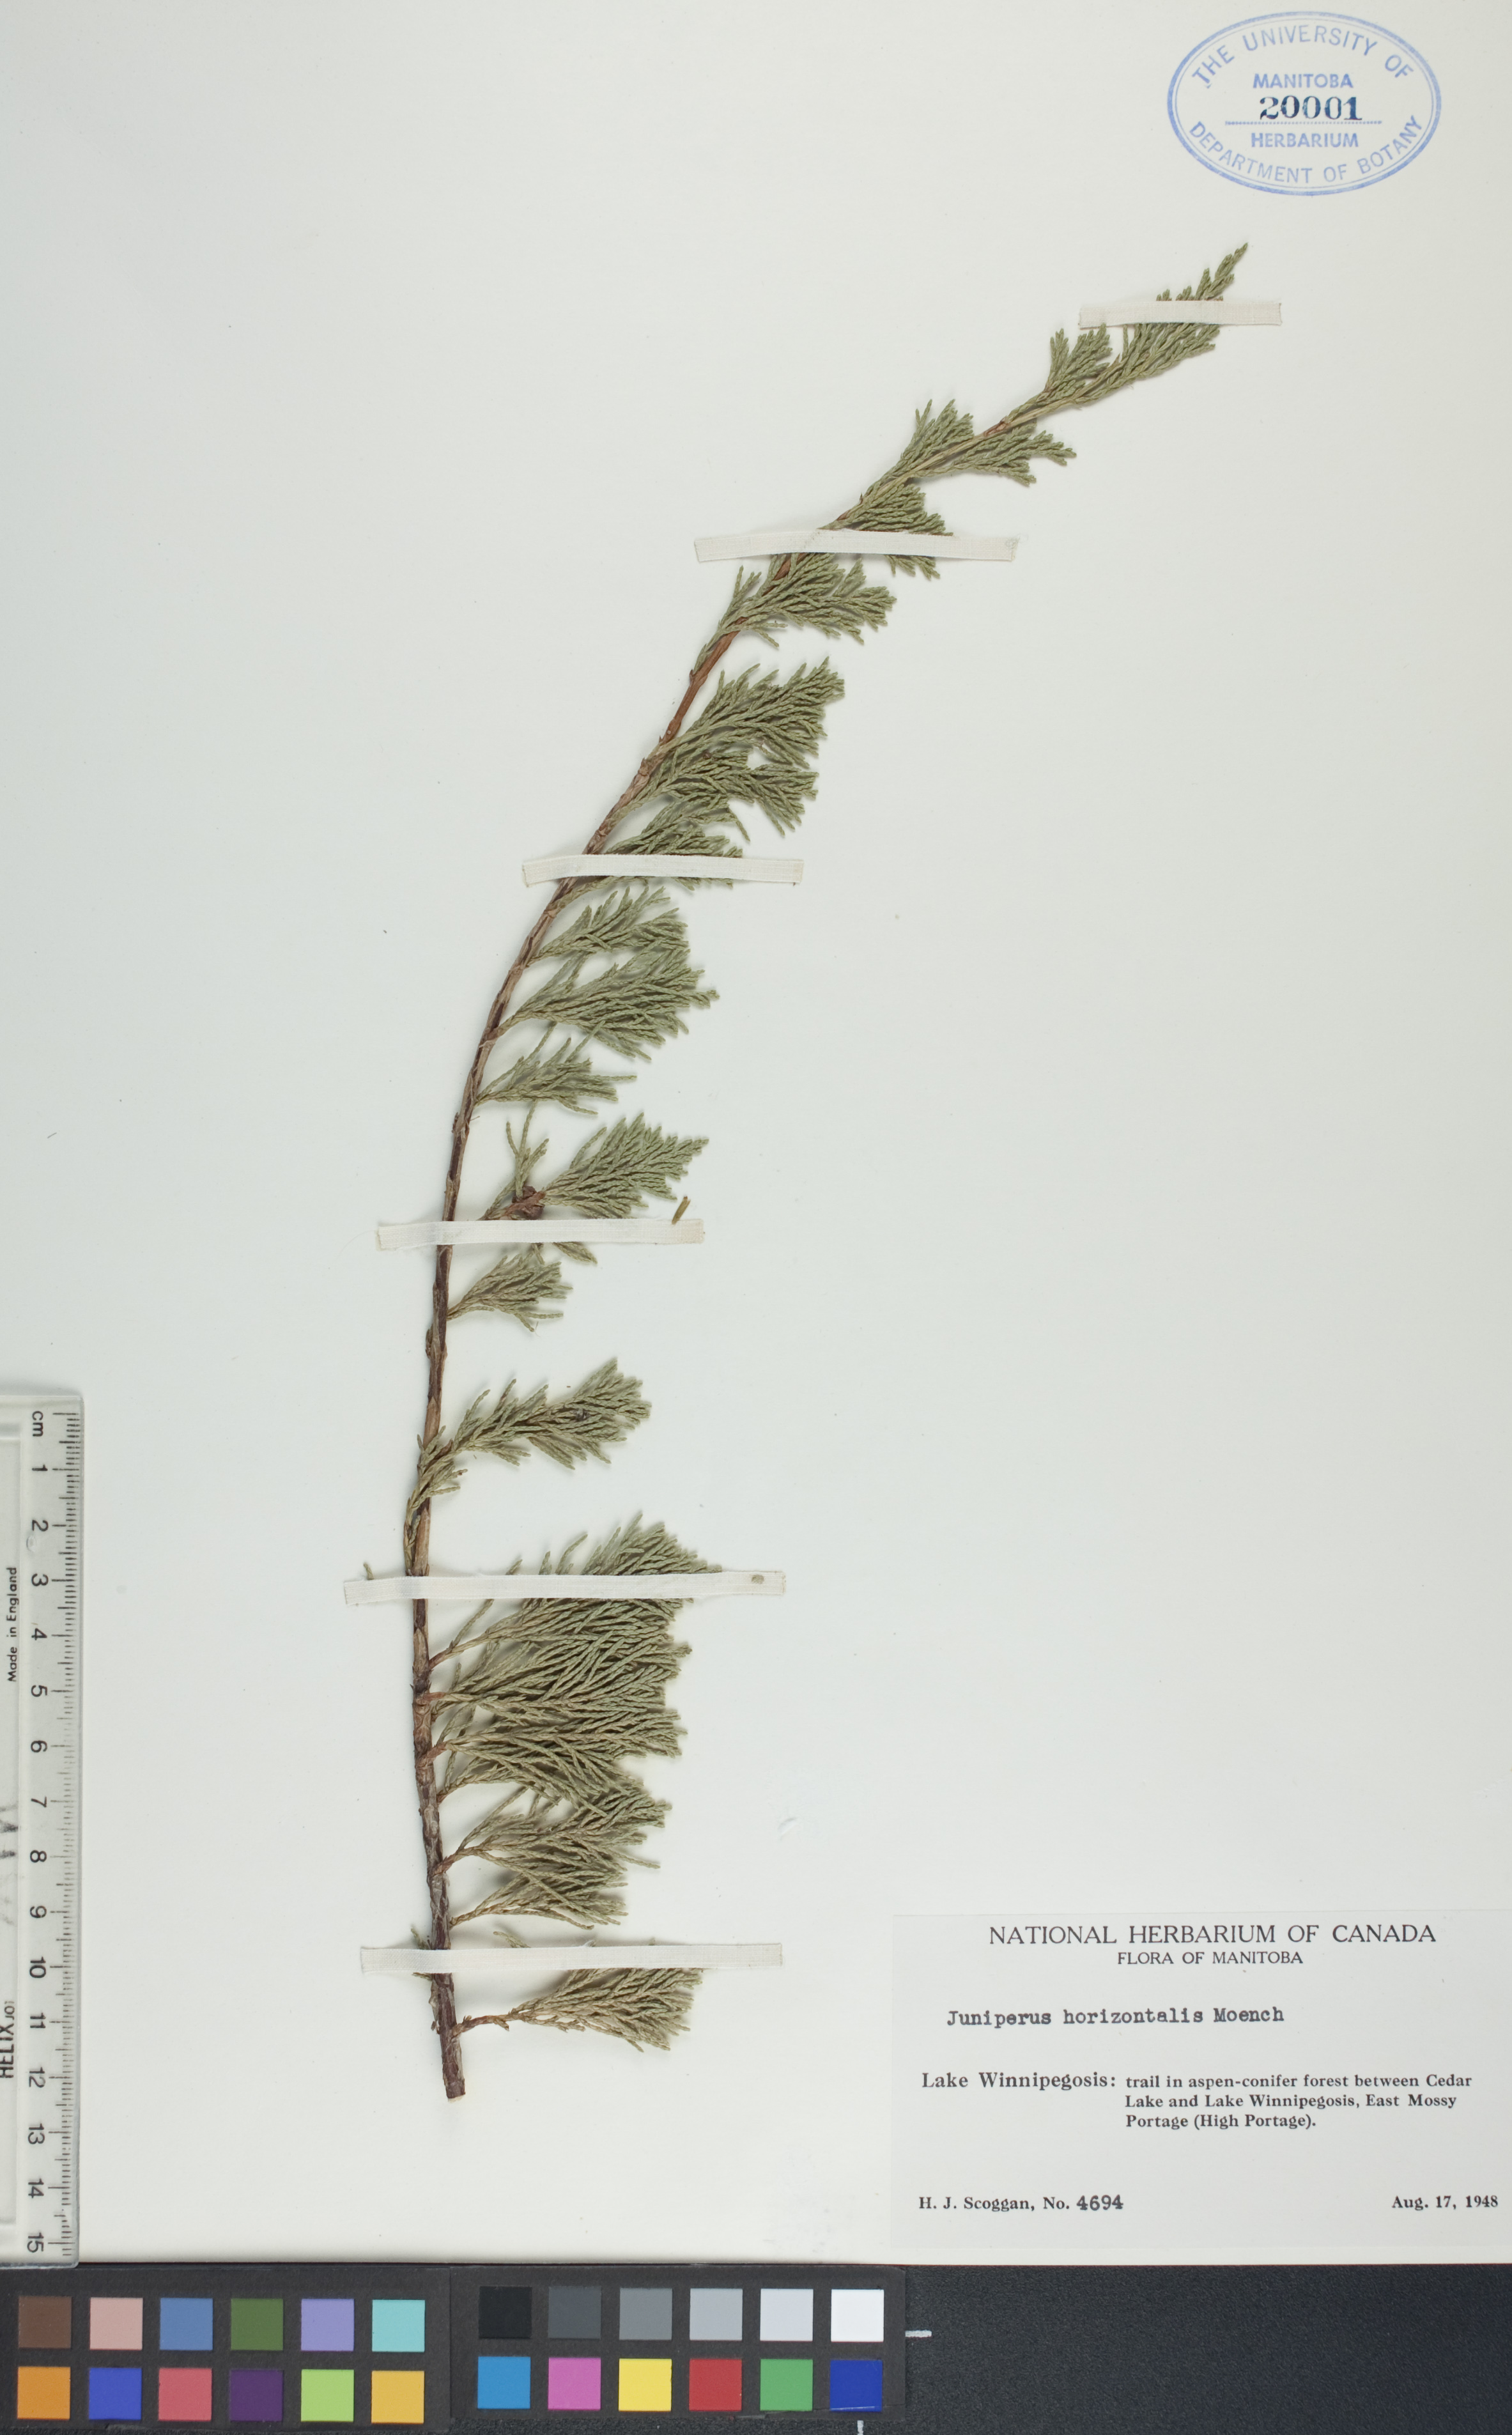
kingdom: Plantae
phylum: Tracheophyta
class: Pinopsida
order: Pinales
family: Cupressaceae
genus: Juniperus
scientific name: Juniperus horizontalis
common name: Creeping juniper
